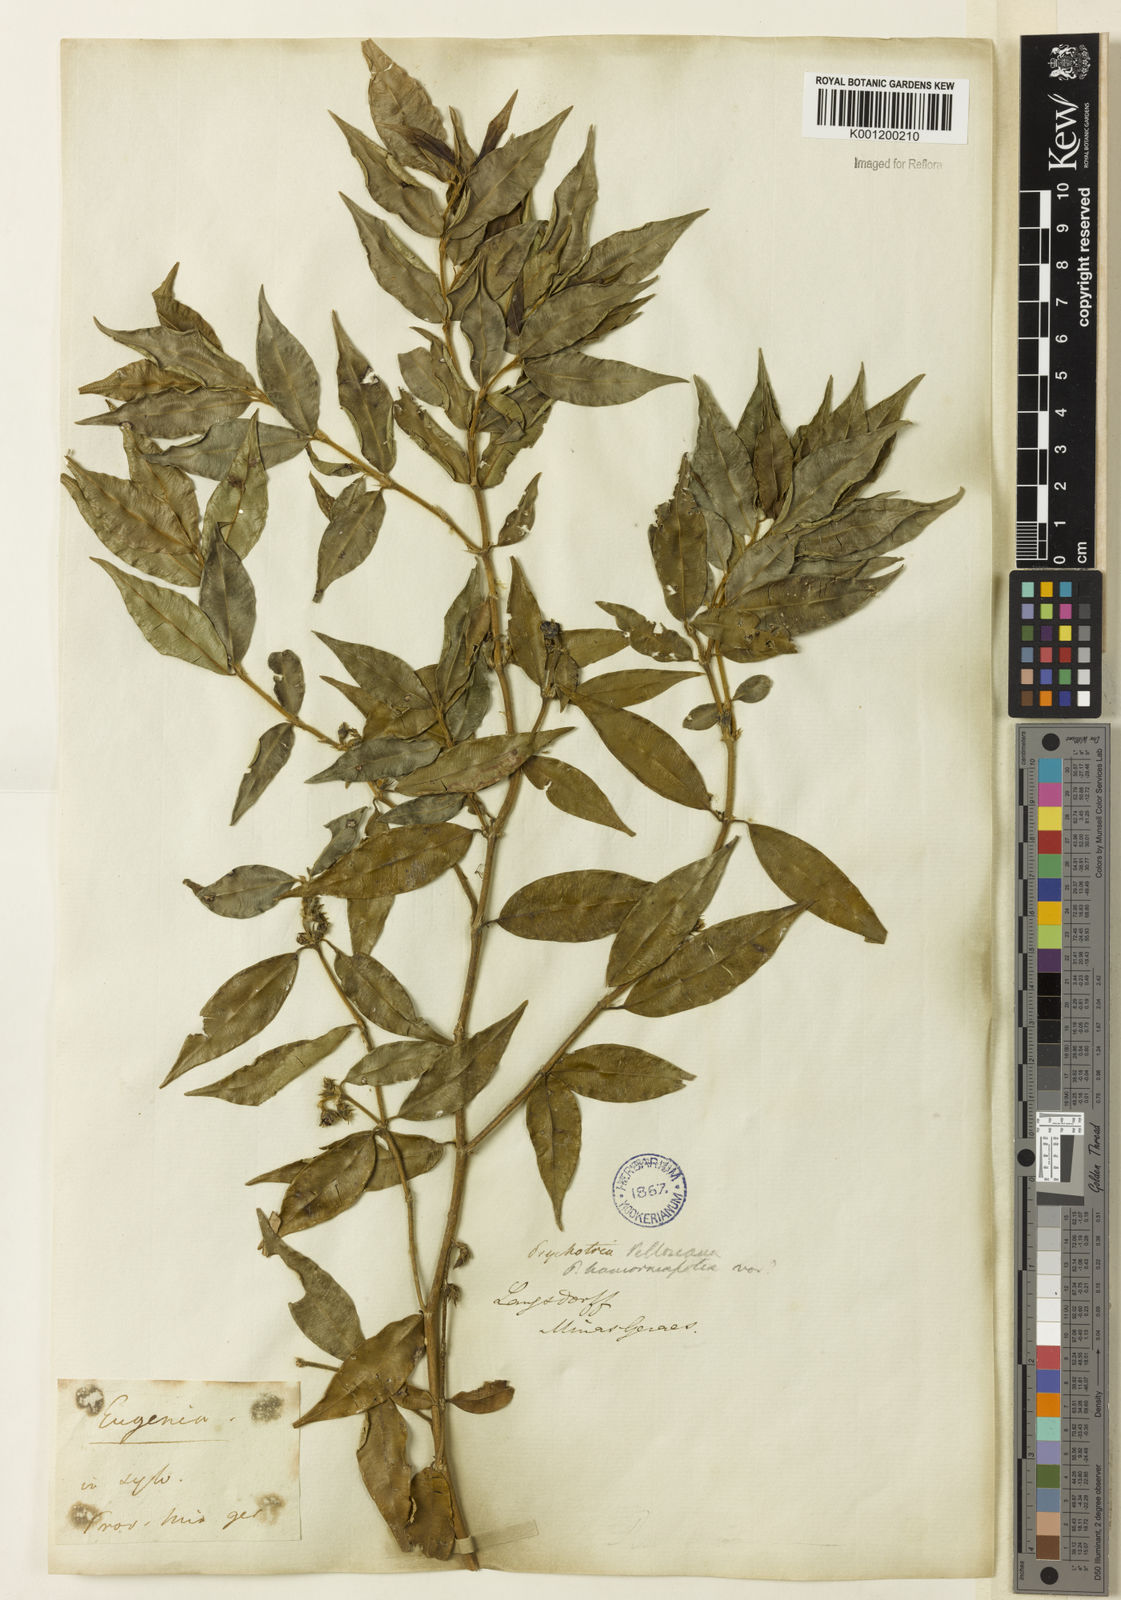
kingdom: Plantae
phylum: Tracheophyta
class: Magnoliopsida
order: Gentianales
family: Rubiaceae
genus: Rudgea
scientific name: Rudgea sessilis
